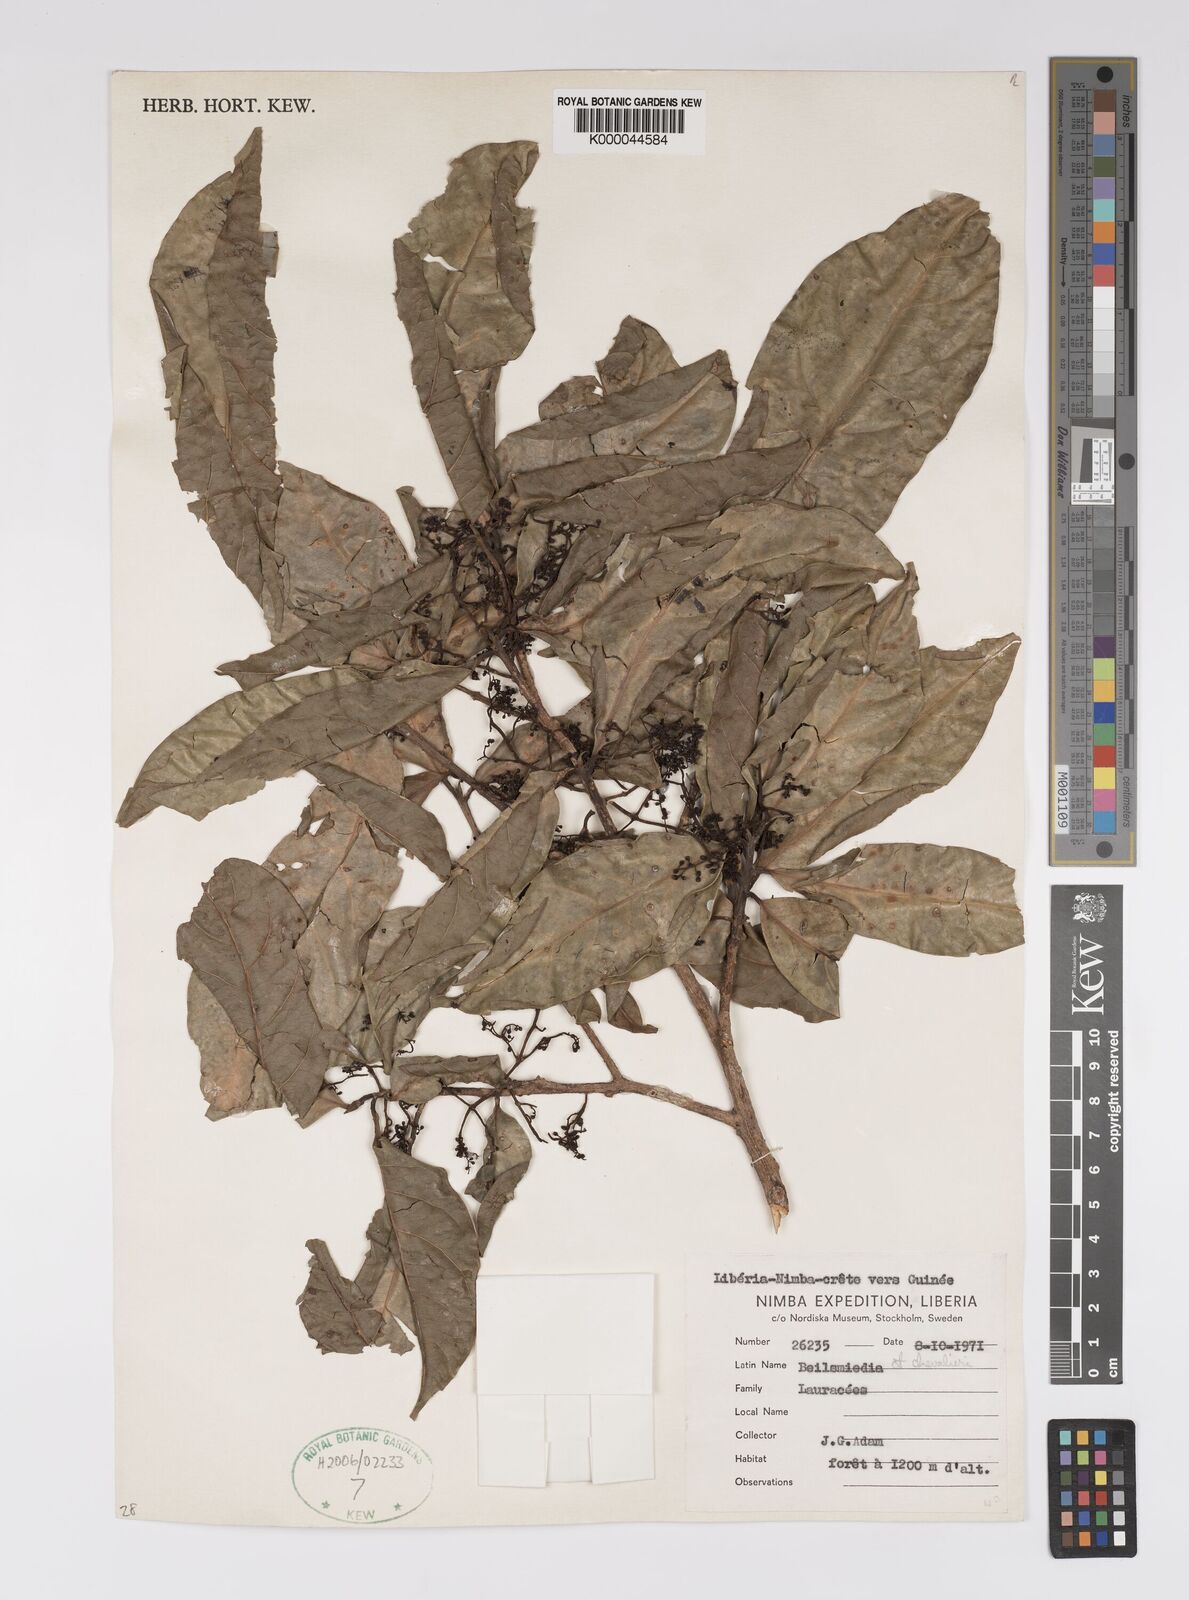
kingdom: Plantae
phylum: Tracheophyta
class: Magnoliopsida
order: Laurales
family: Lauraceae
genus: Beilschmiedia
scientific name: Beilschmiedia chevalieri
